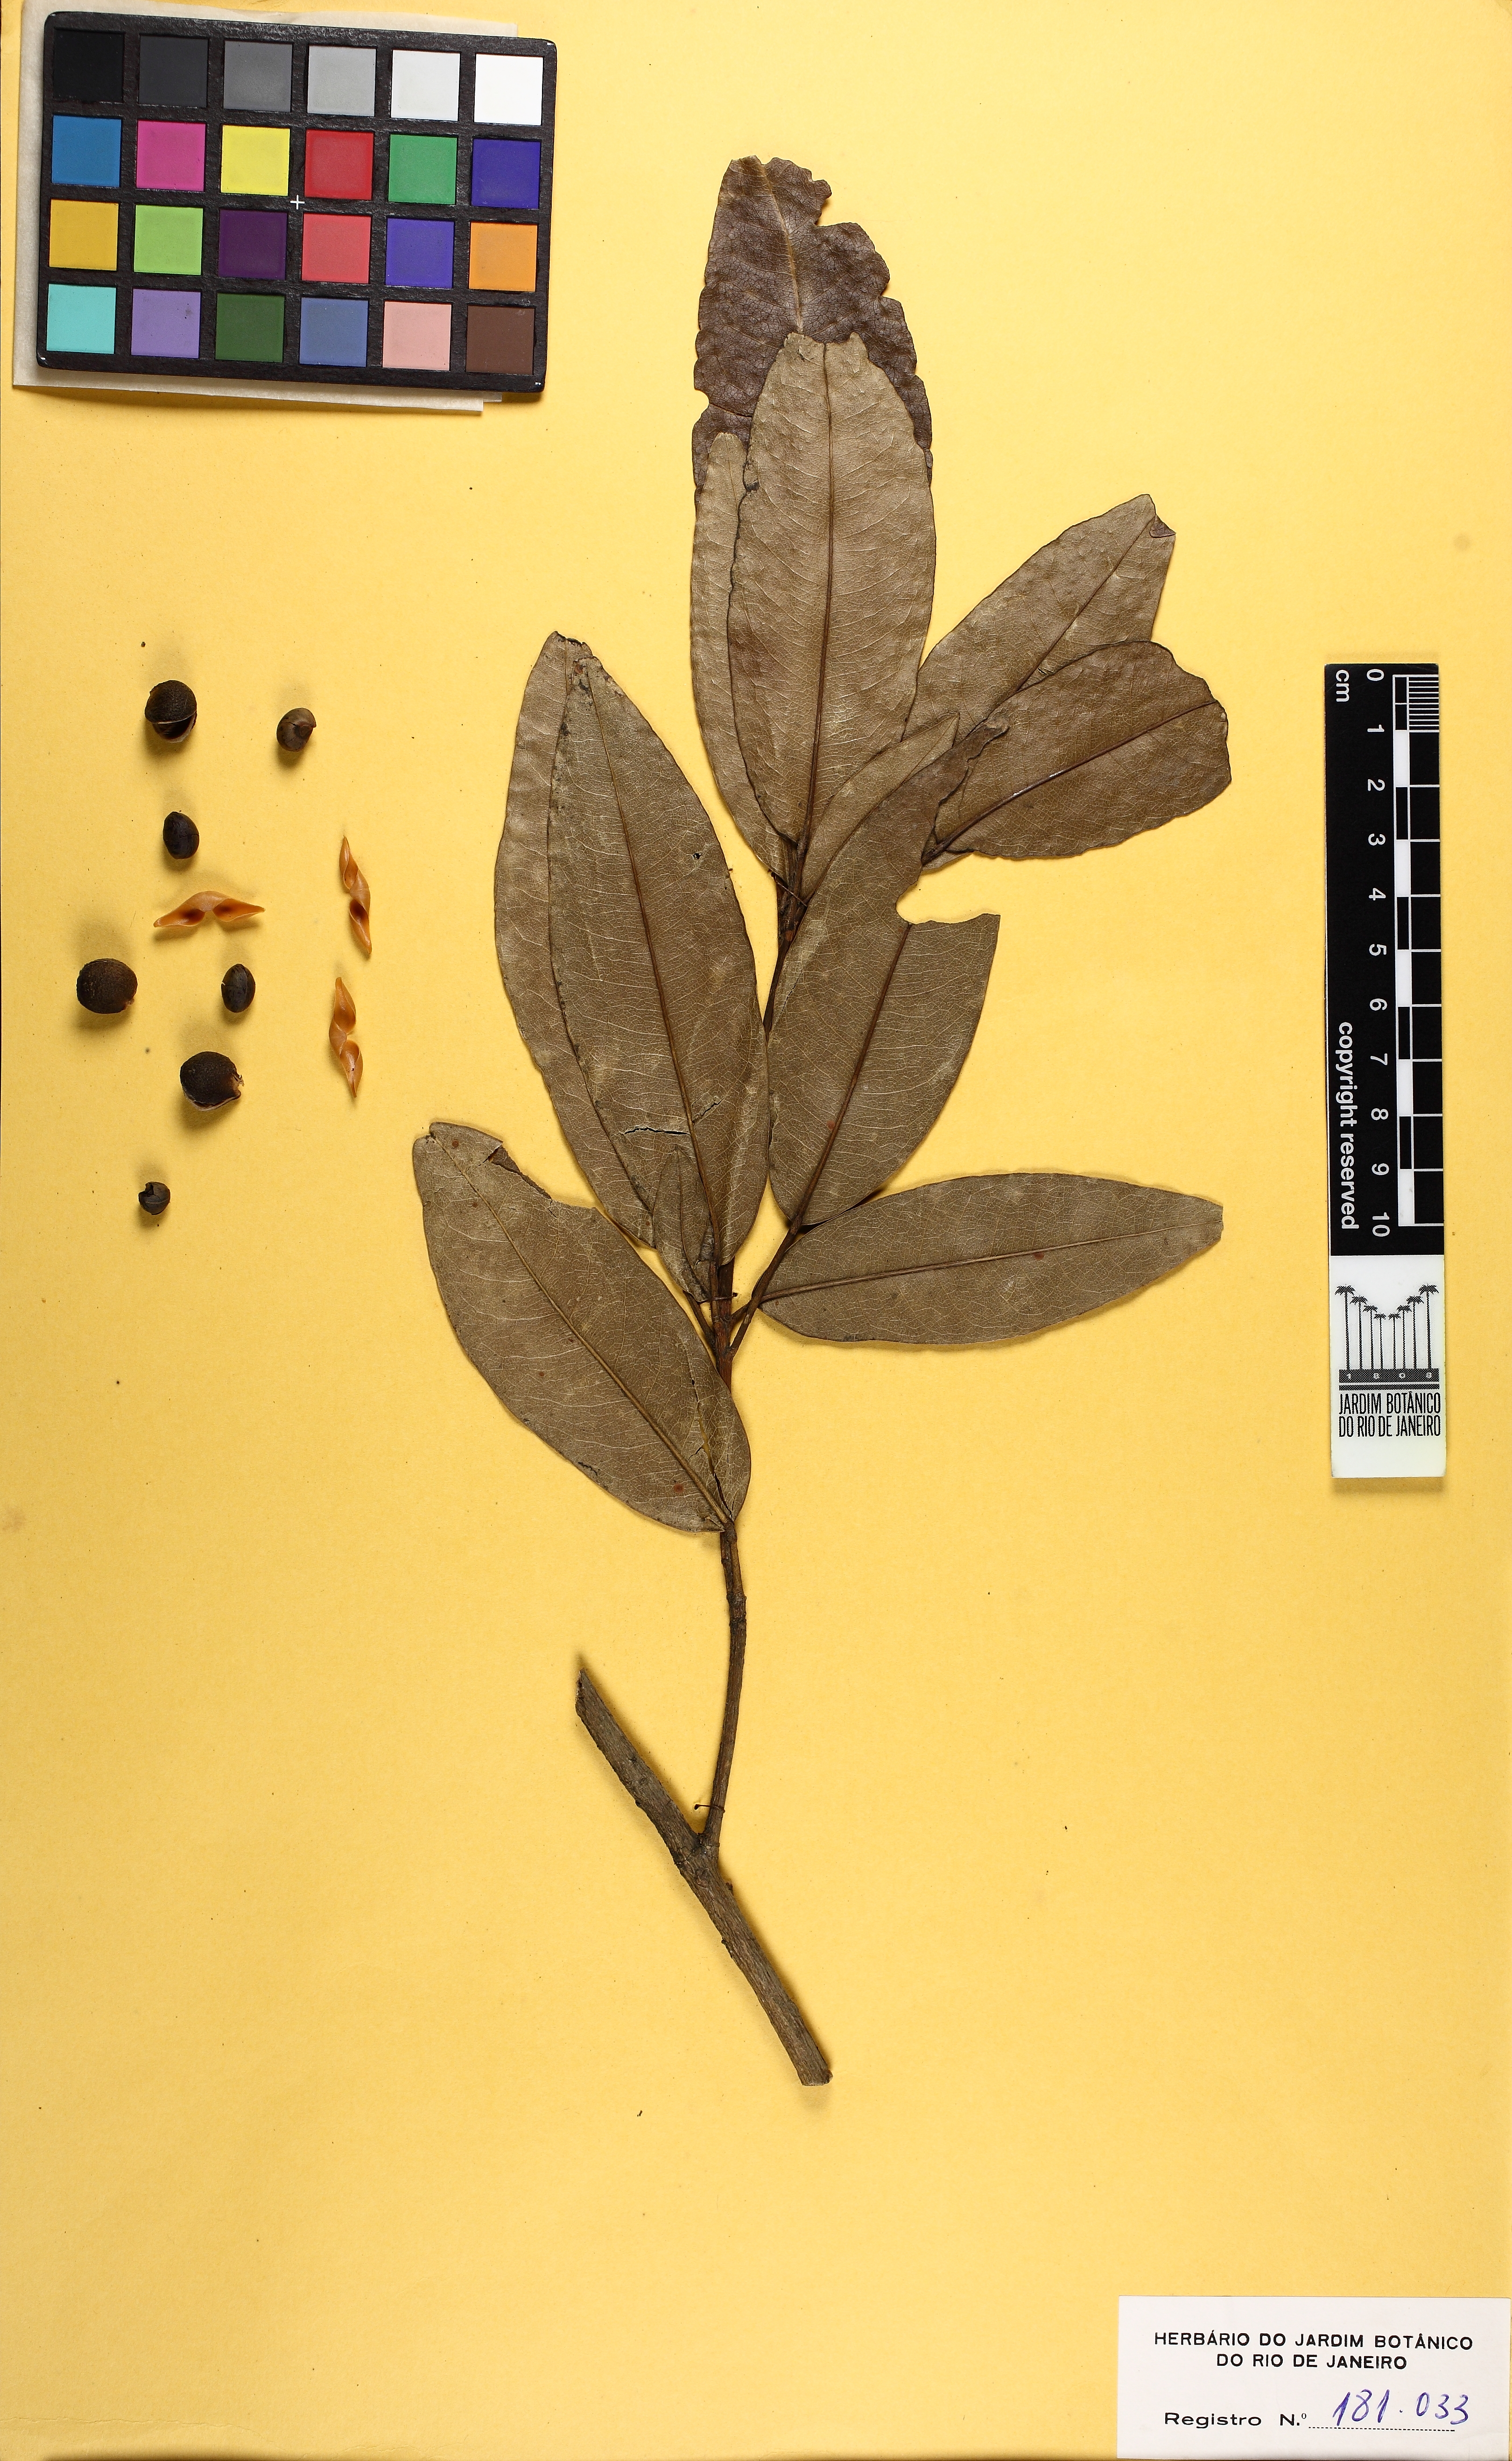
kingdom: Plantae
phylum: Tracheophyta
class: Magnoliopsida
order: Sapindales
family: Rutaceae
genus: Conchocarpus
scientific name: Conchocarpus ruber
